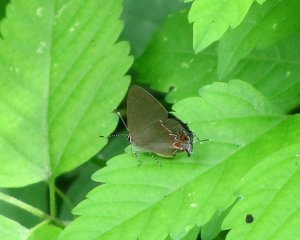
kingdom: Animalia
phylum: Arthropoda
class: Insecta
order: Lepidoptera
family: Lycaenidae
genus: Calycopis
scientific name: Calycopis isobeon
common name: Dusky-blue Groundstreak
